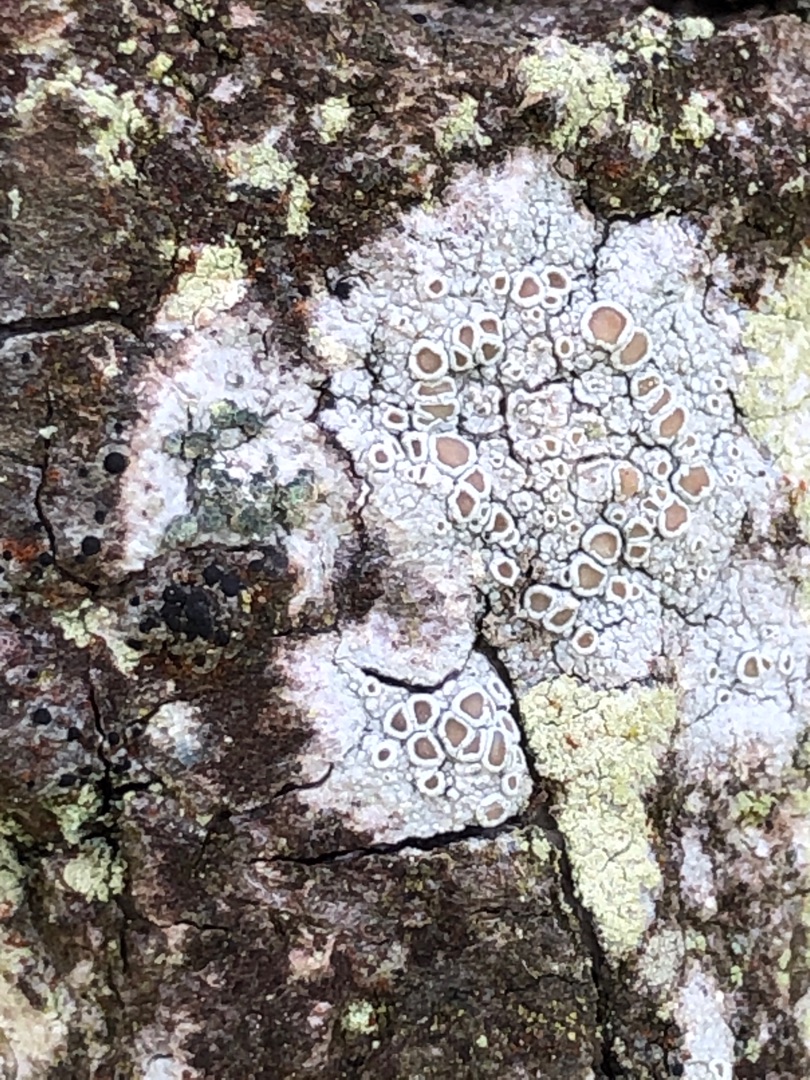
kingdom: Fungi
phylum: Ascomycota
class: Lecanoromycetes
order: Lecanorales
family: Lecanoraceae
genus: Lecanora
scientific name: Lecanora chlarotera
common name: Brun kantskivelav
